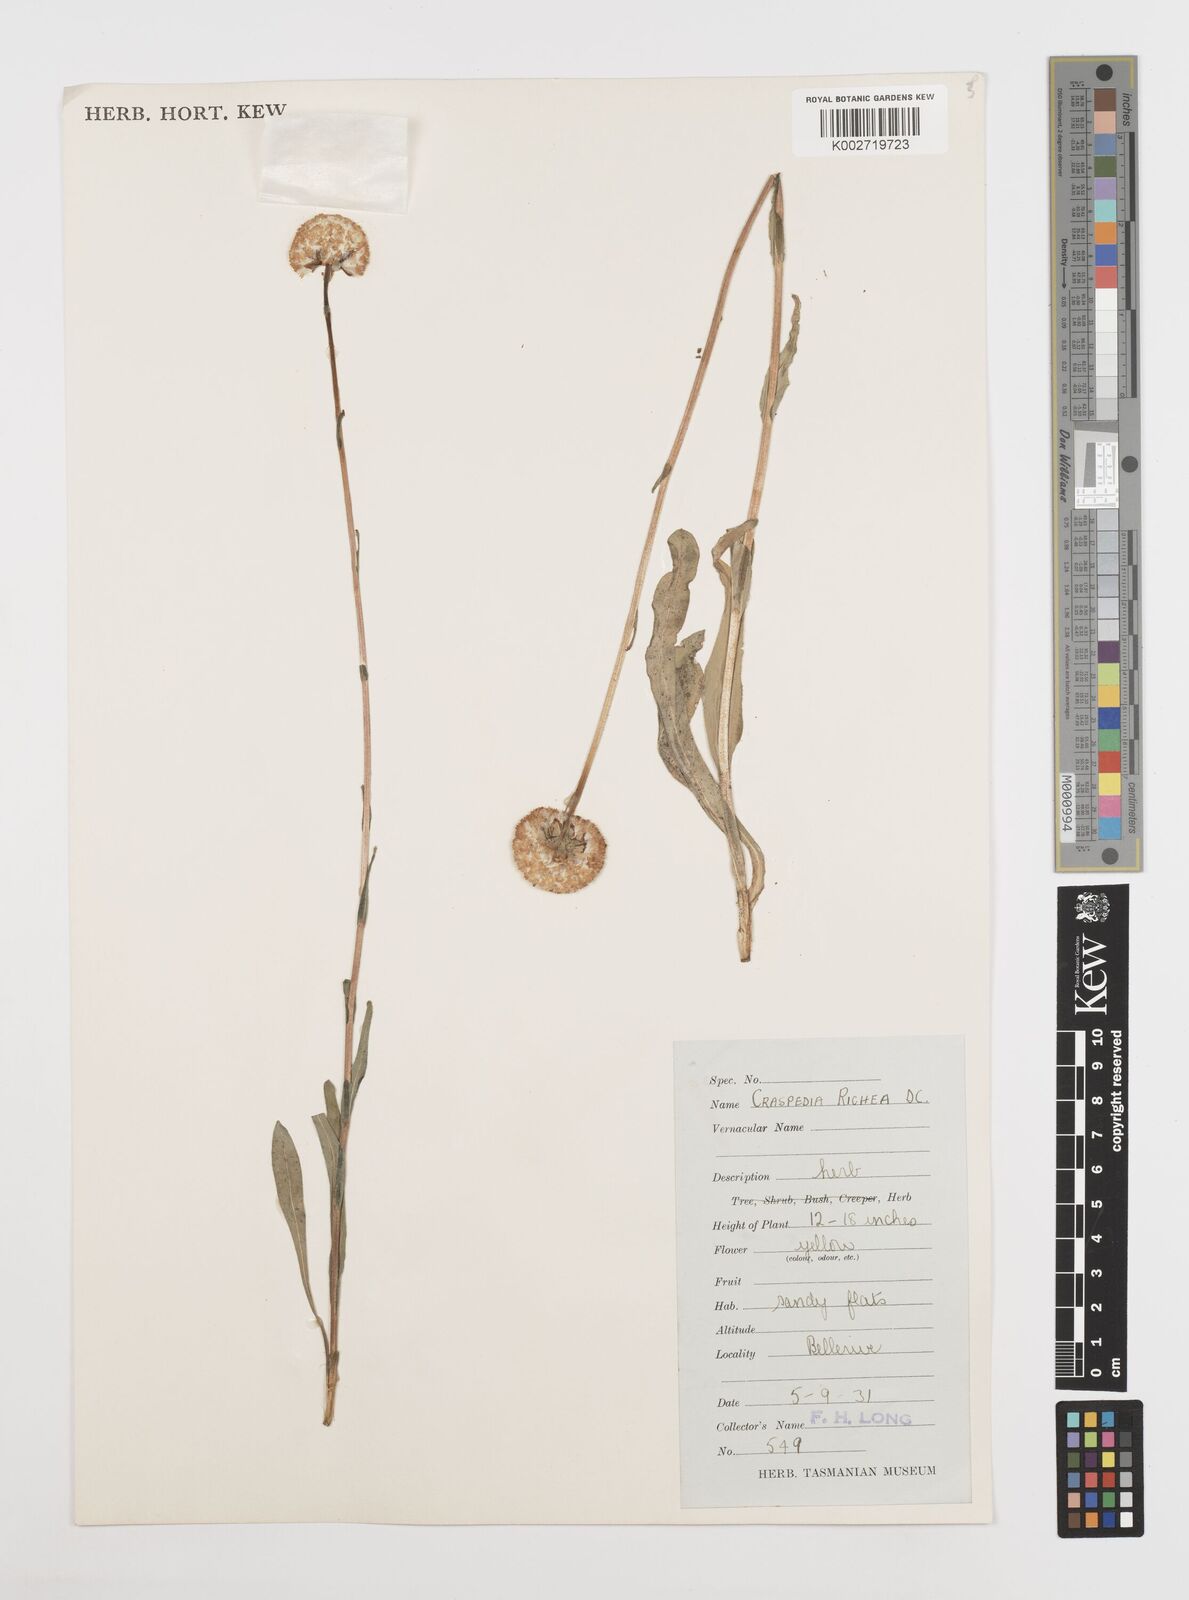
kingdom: Plantae
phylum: Tracheophyta
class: Magnoliopsida
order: Asterales
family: Asteraceae
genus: Craspedia
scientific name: Craspedia glauca
